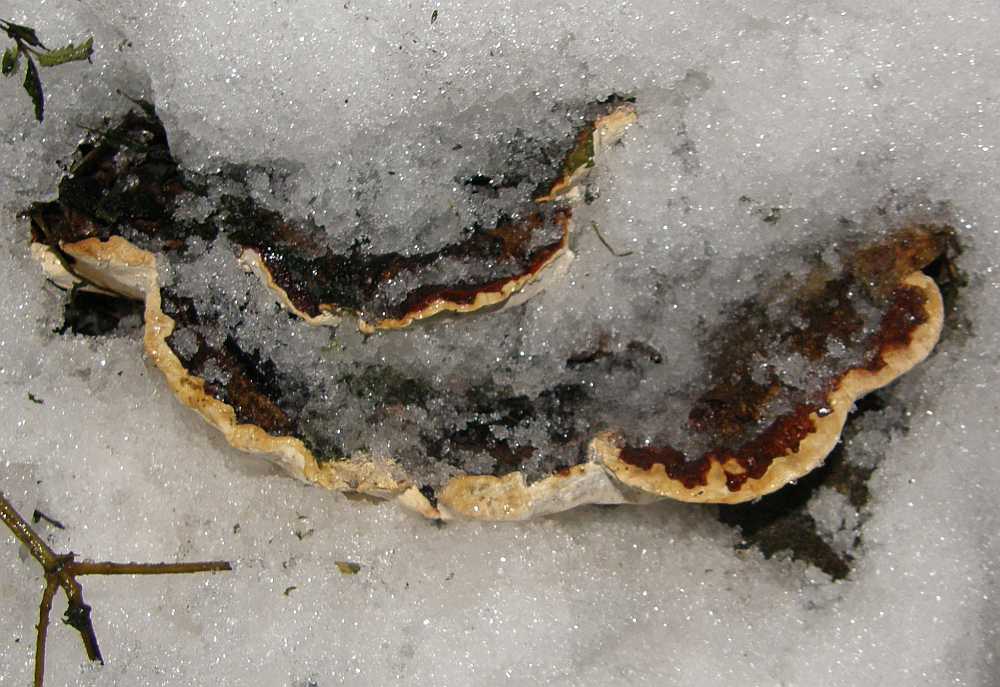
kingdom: Fungi
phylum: Basidiomycota
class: Agaricomycetes
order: Russulales
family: Bondarzewiaceae
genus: Heterobasidion
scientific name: Heterobasidion annosum
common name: almindelig rodfordærver
